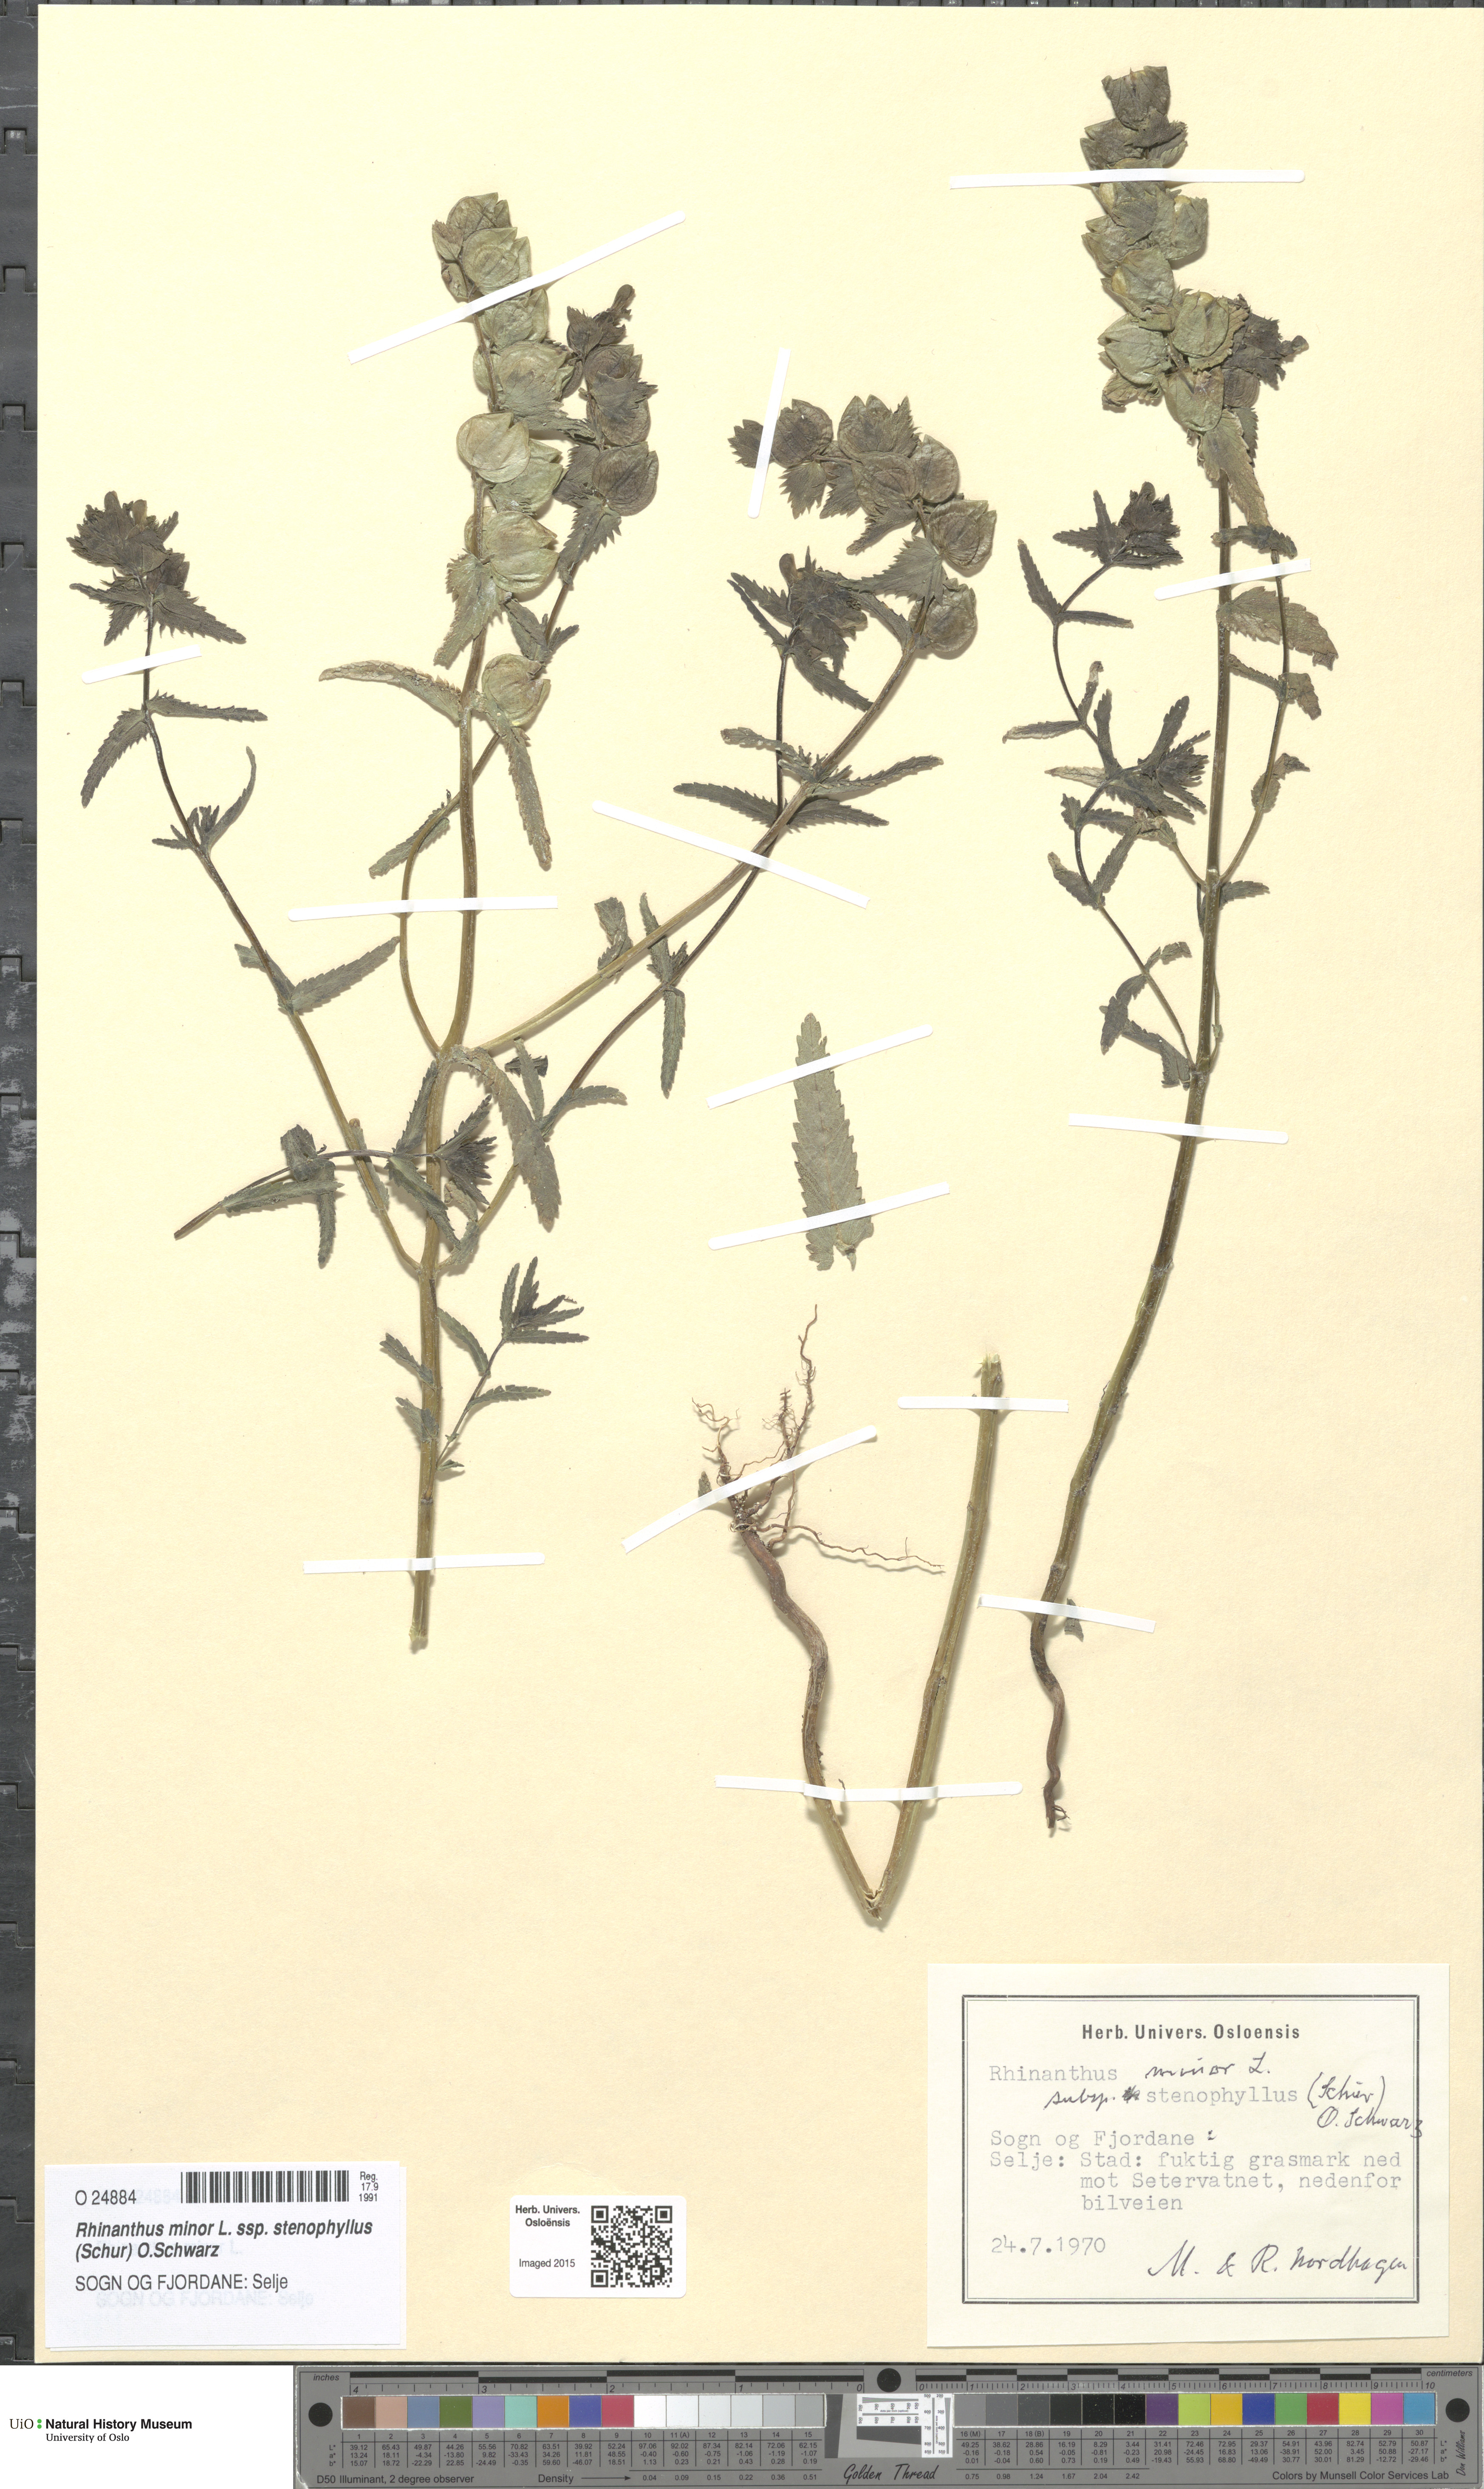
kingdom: Plantae
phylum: Tracheophyta
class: Magnoliopsida
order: Lamiales
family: Orobanchaceae
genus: Rhinanthus
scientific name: Rhinanthus minor
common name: Yellow-rattle
